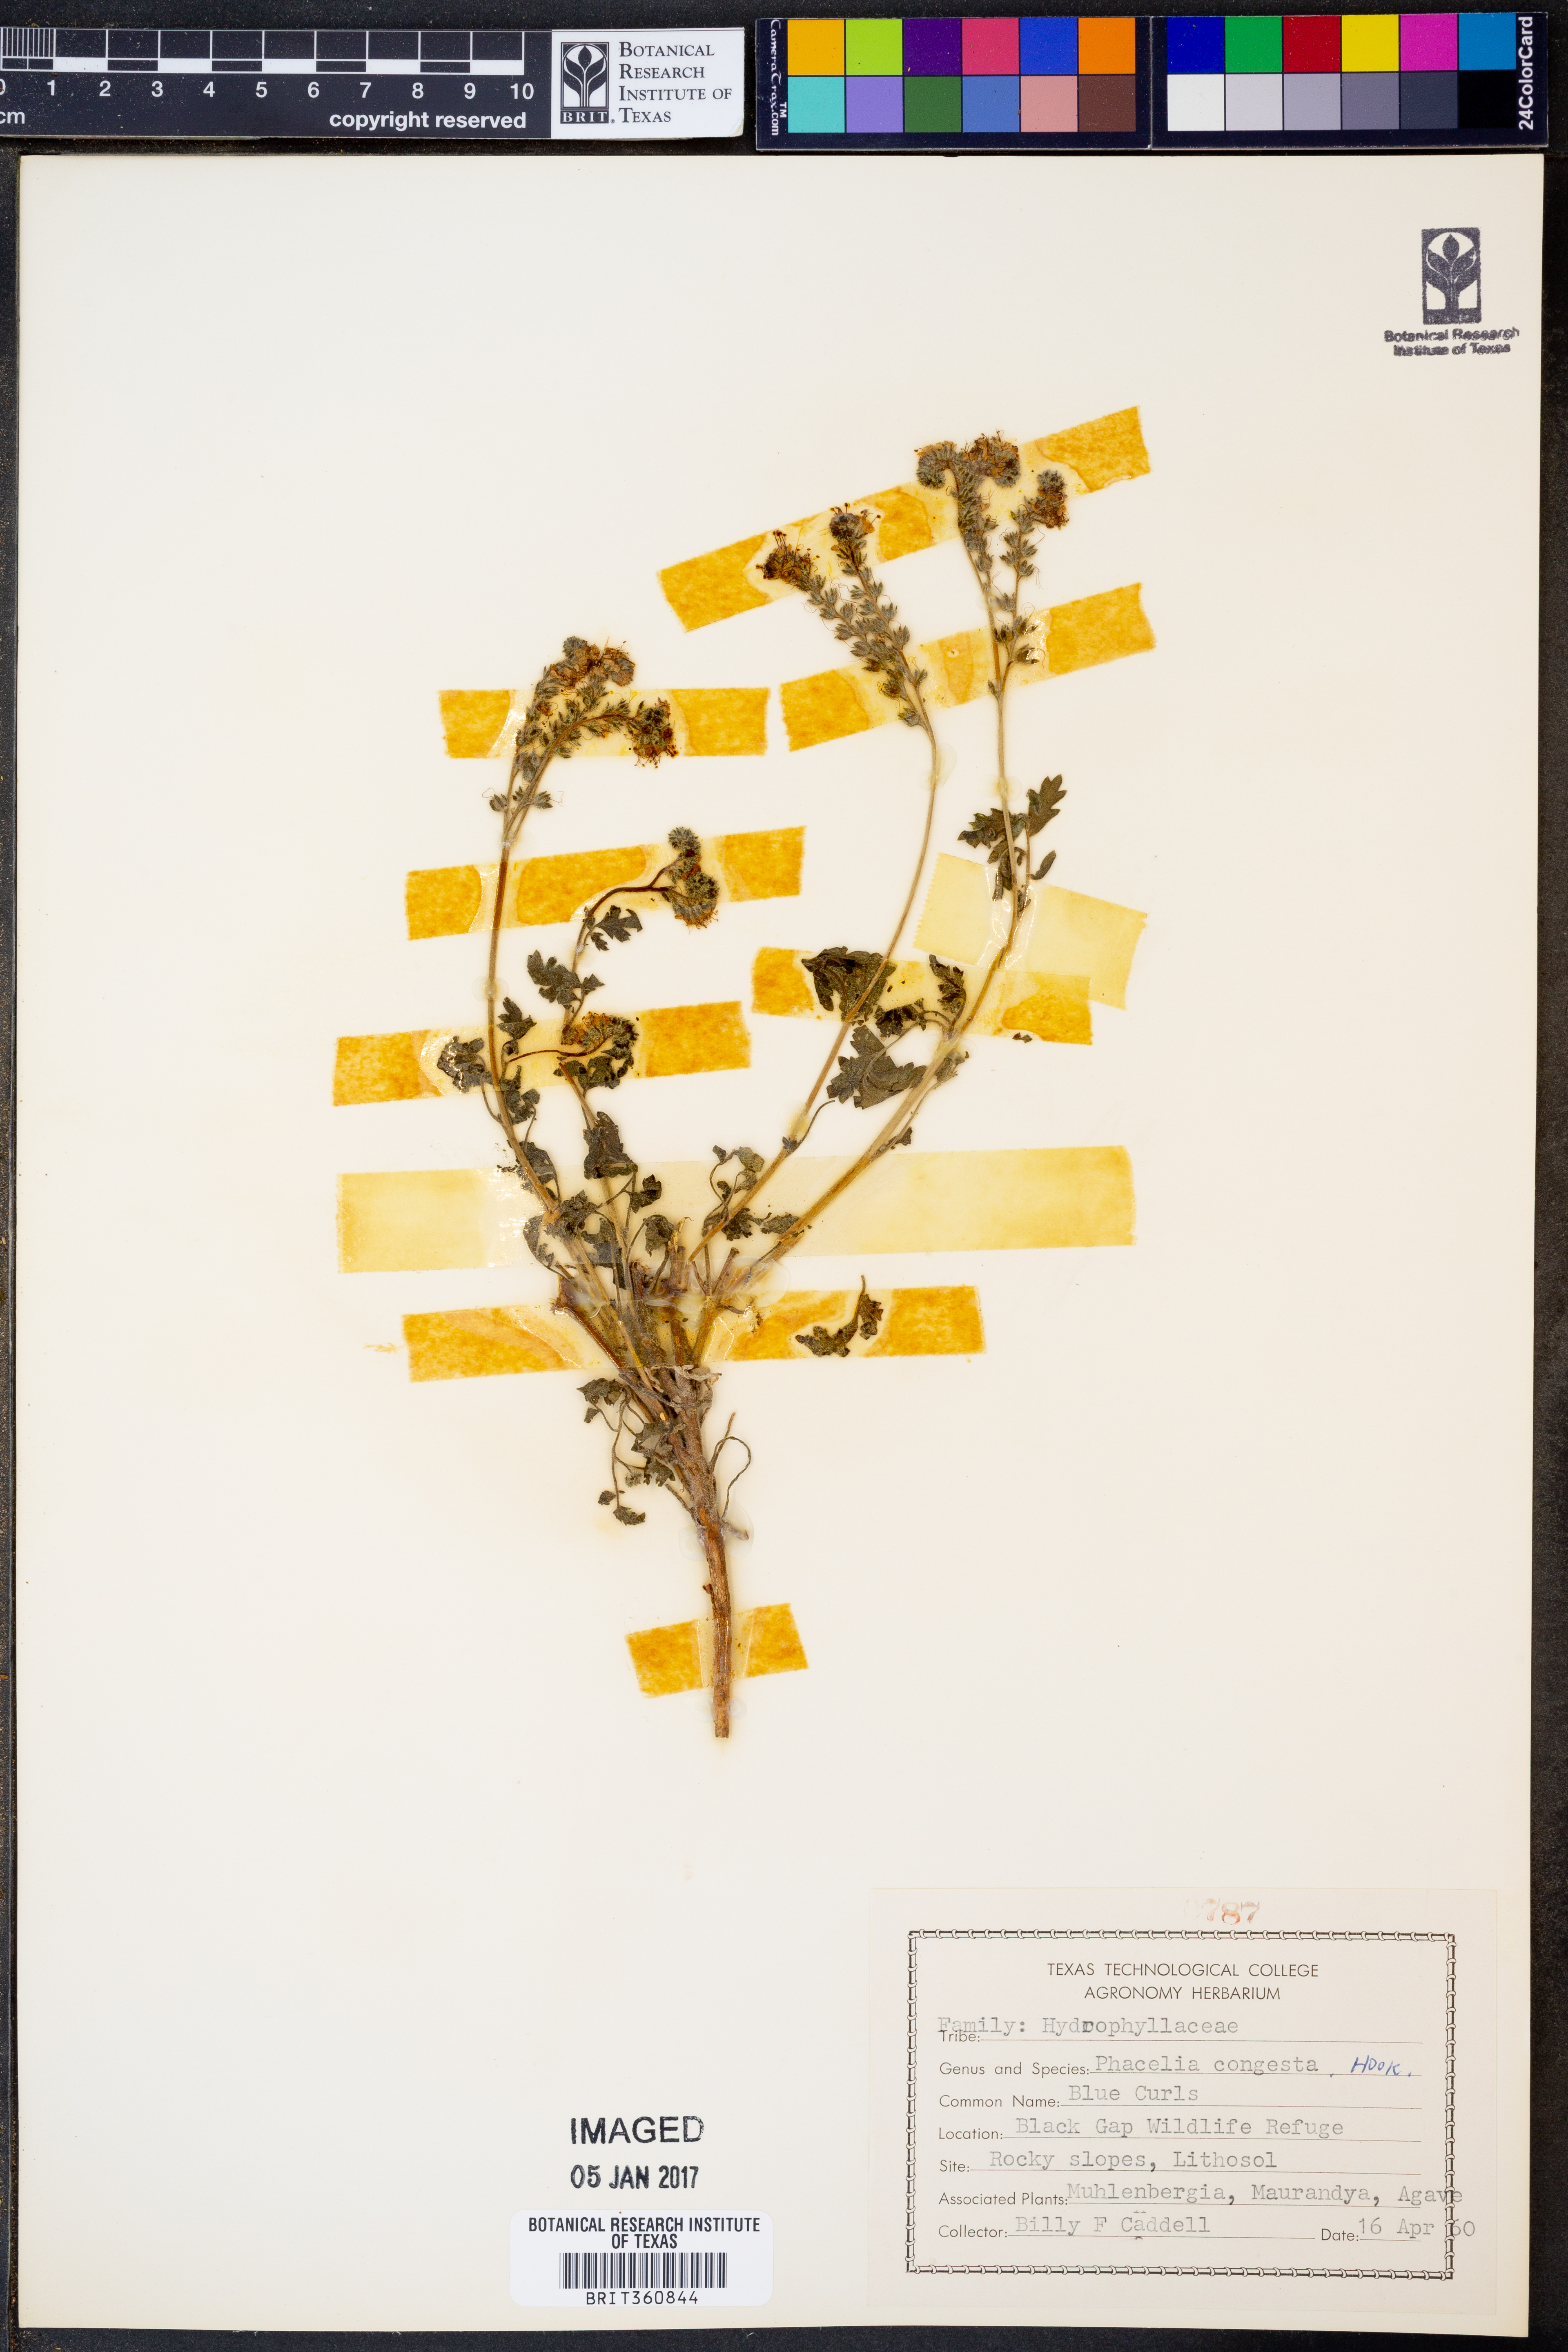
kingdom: Plantae
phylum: Tracheophyta
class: Magnoliopsida
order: Boraginales
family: Hydrophyllaceae
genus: Phacelia
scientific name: Phacelia congesta
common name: Blue curls
